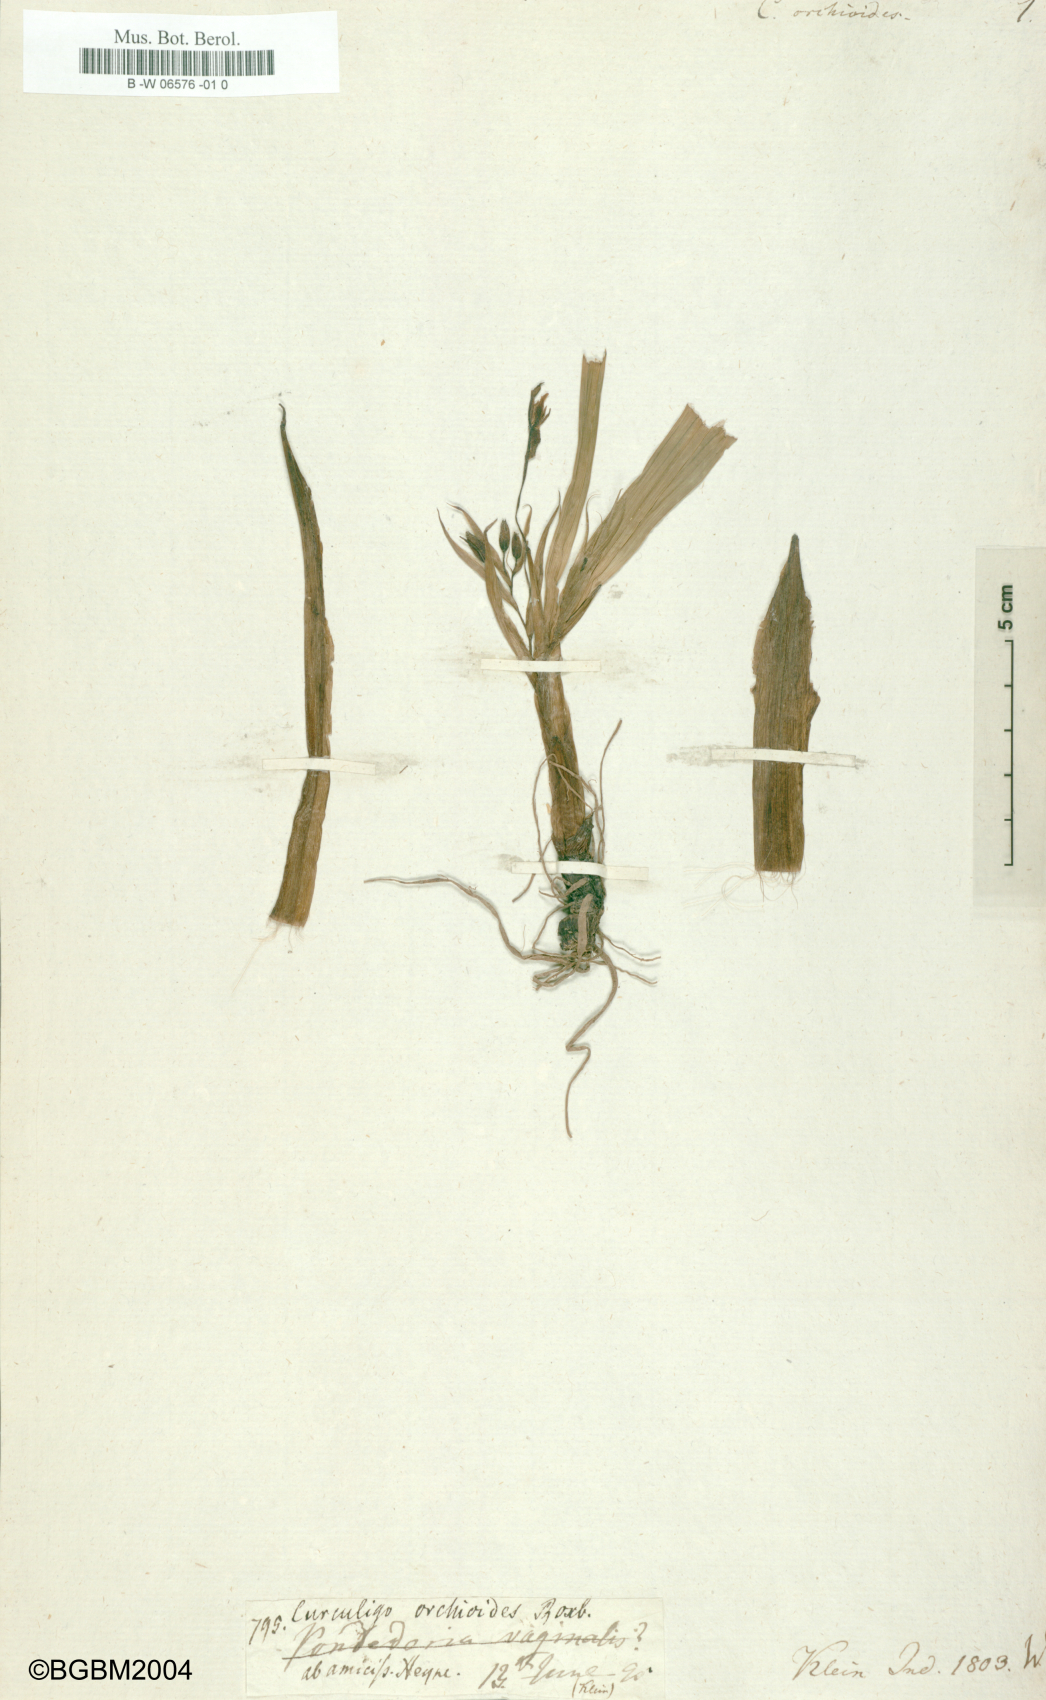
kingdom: Plantae
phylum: Tracheophyta
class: Liliopsida
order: Asparagales
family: Hypoxidaceae
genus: Curculigo
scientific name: Curculigo orchioides
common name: Golden eye-grass
